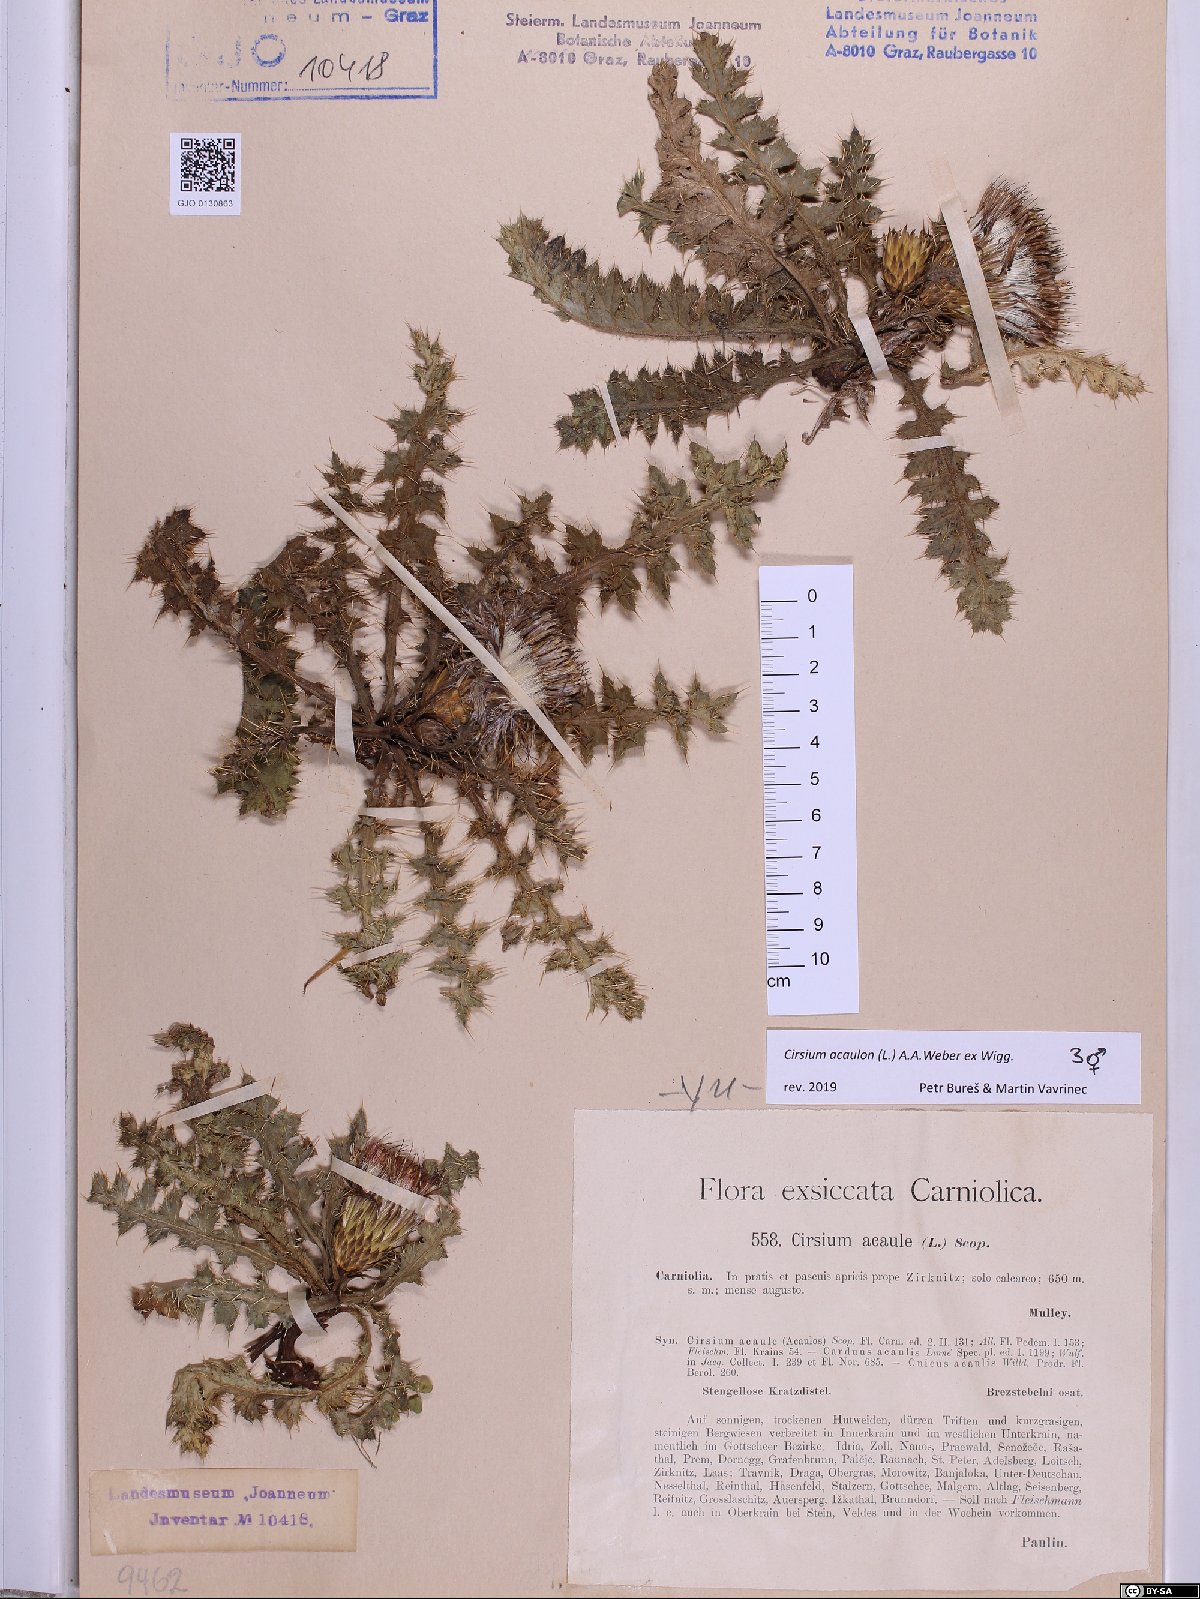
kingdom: Plantae
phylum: Tracheophyta
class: Magnoliopsida
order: Asterales
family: Asteraceae
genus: Cirsium
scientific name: Cirsium acaulon
